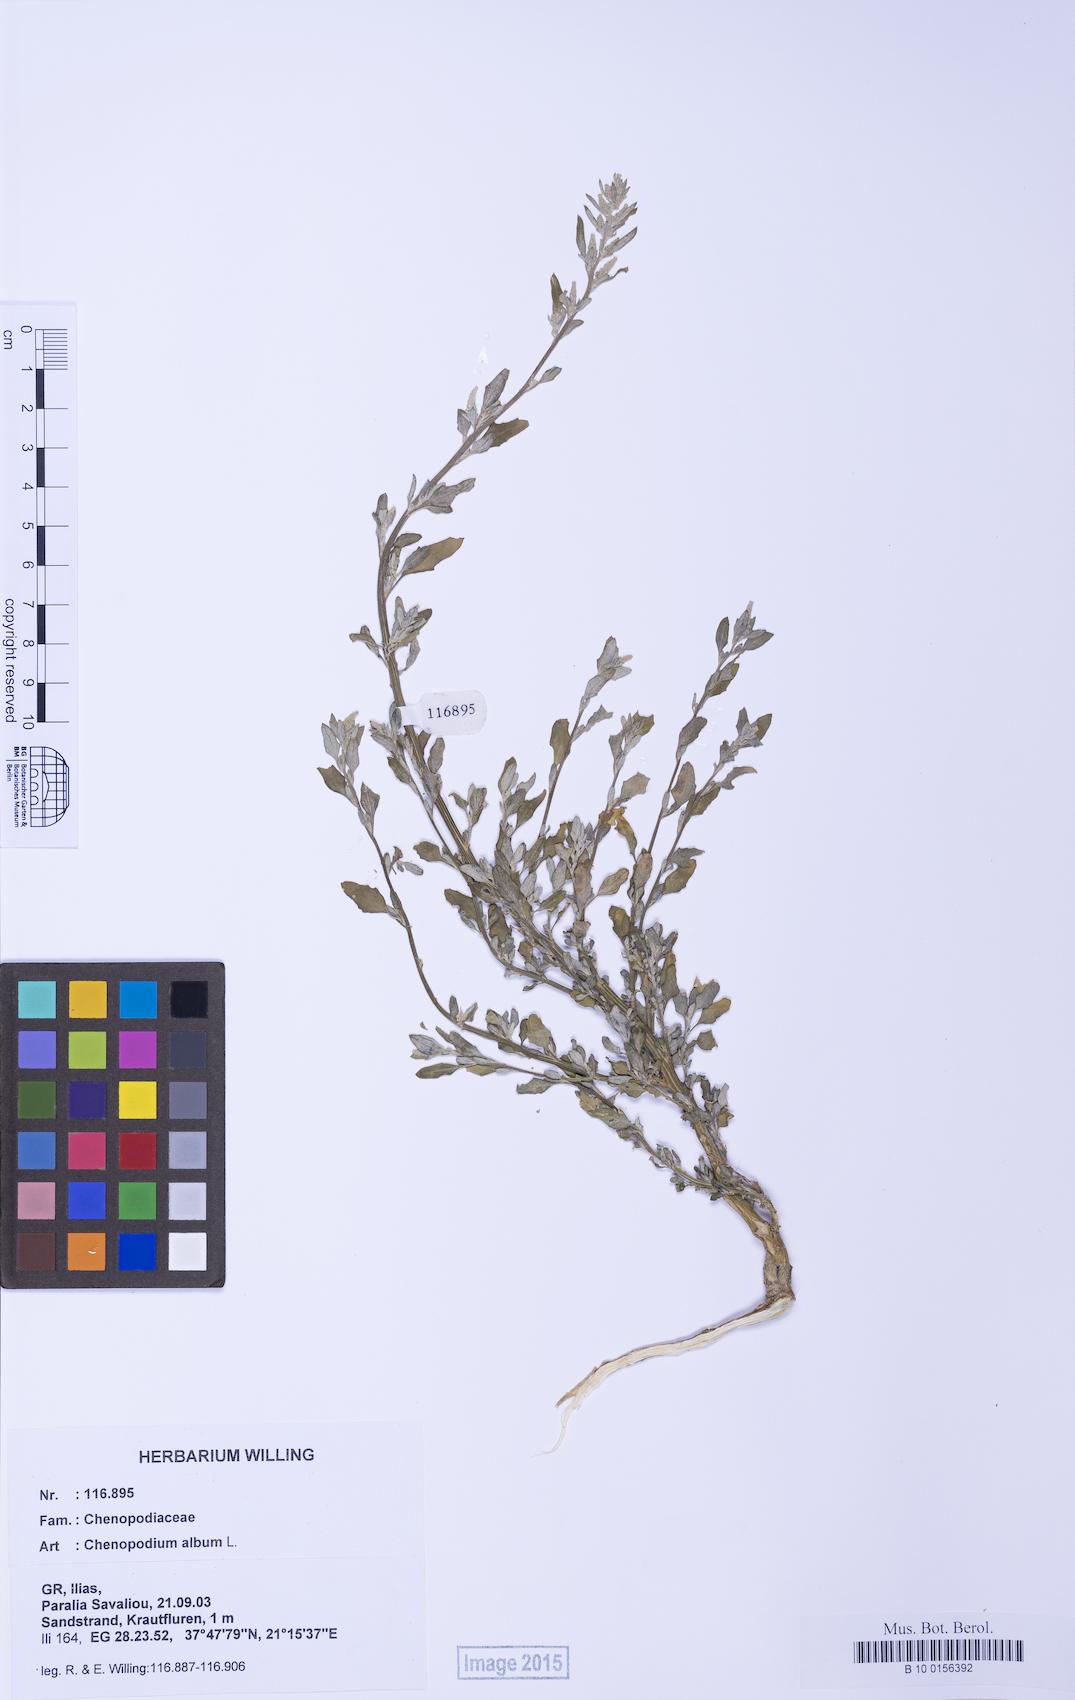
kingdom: Plantae
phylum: Tracheophyta
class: Magnoliopsida
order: Caryophyllales
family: Amaranthaceae
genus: Chenopodium
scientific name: Chenopodium album
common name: Fat-hen
